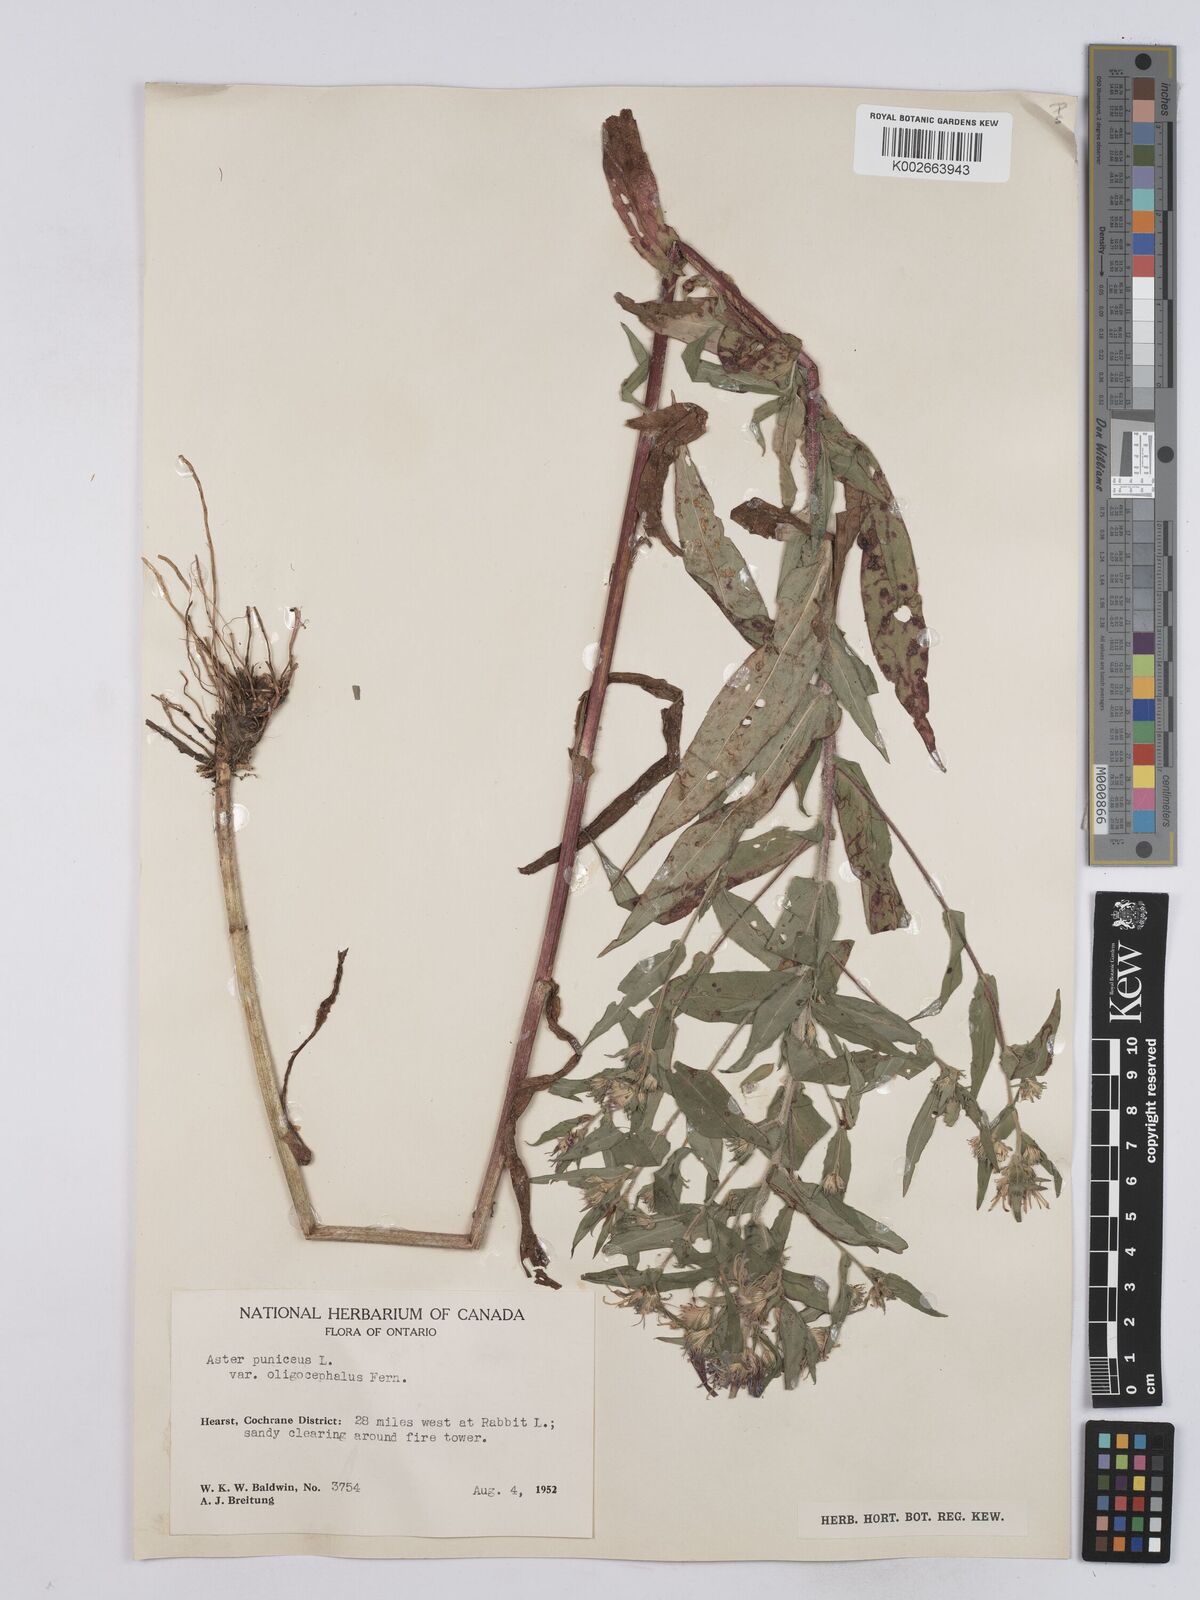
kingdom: Plantae
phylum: Tracheophyta
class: Magnoliopsida
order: Asterales
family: Asteraceae
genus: Symphyotrichum
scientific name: Symphyotrichum puniceum
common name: Bog aster
